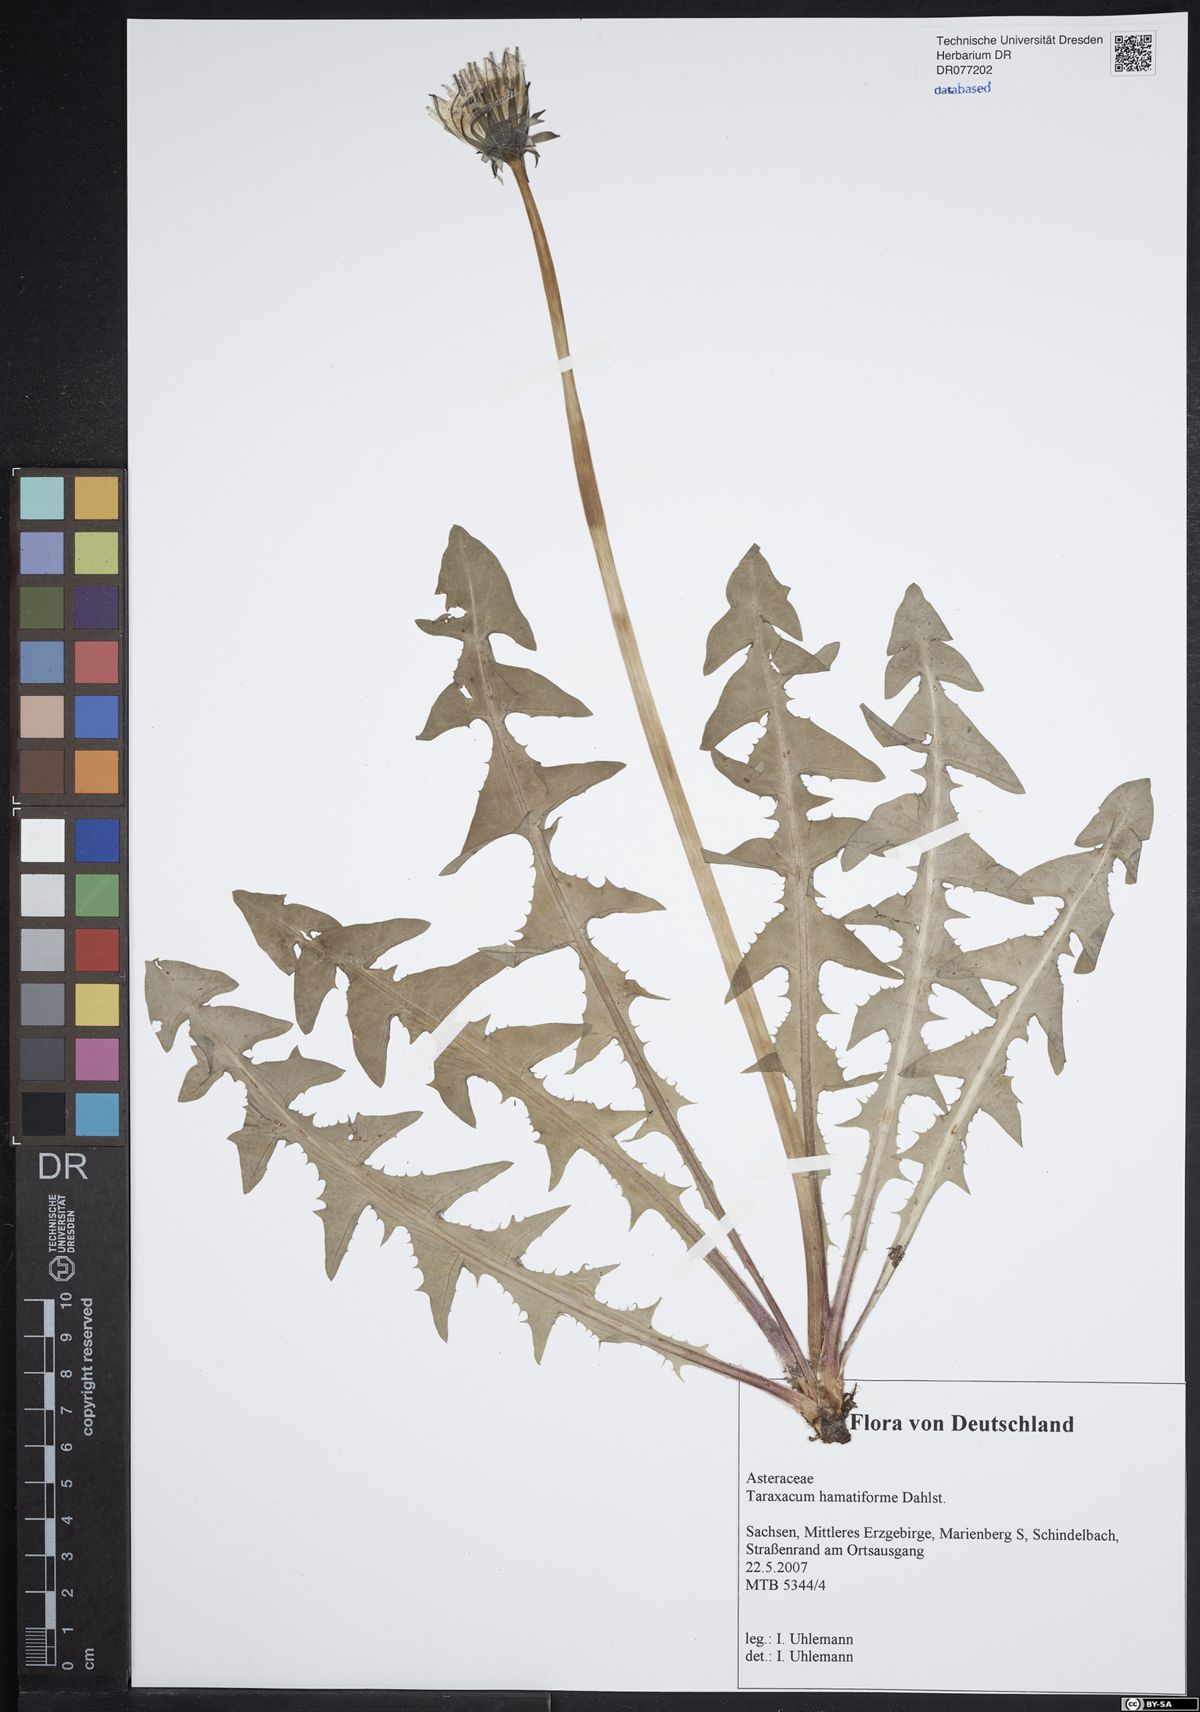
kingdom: Plantae
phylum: Tracheophyta
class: Magnoliopsida
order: Asterales
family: Asteraceae
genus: Taraxacum
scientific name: Taraxacum hamatiforme
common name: Asymmetrical hook-lobed dandelion
